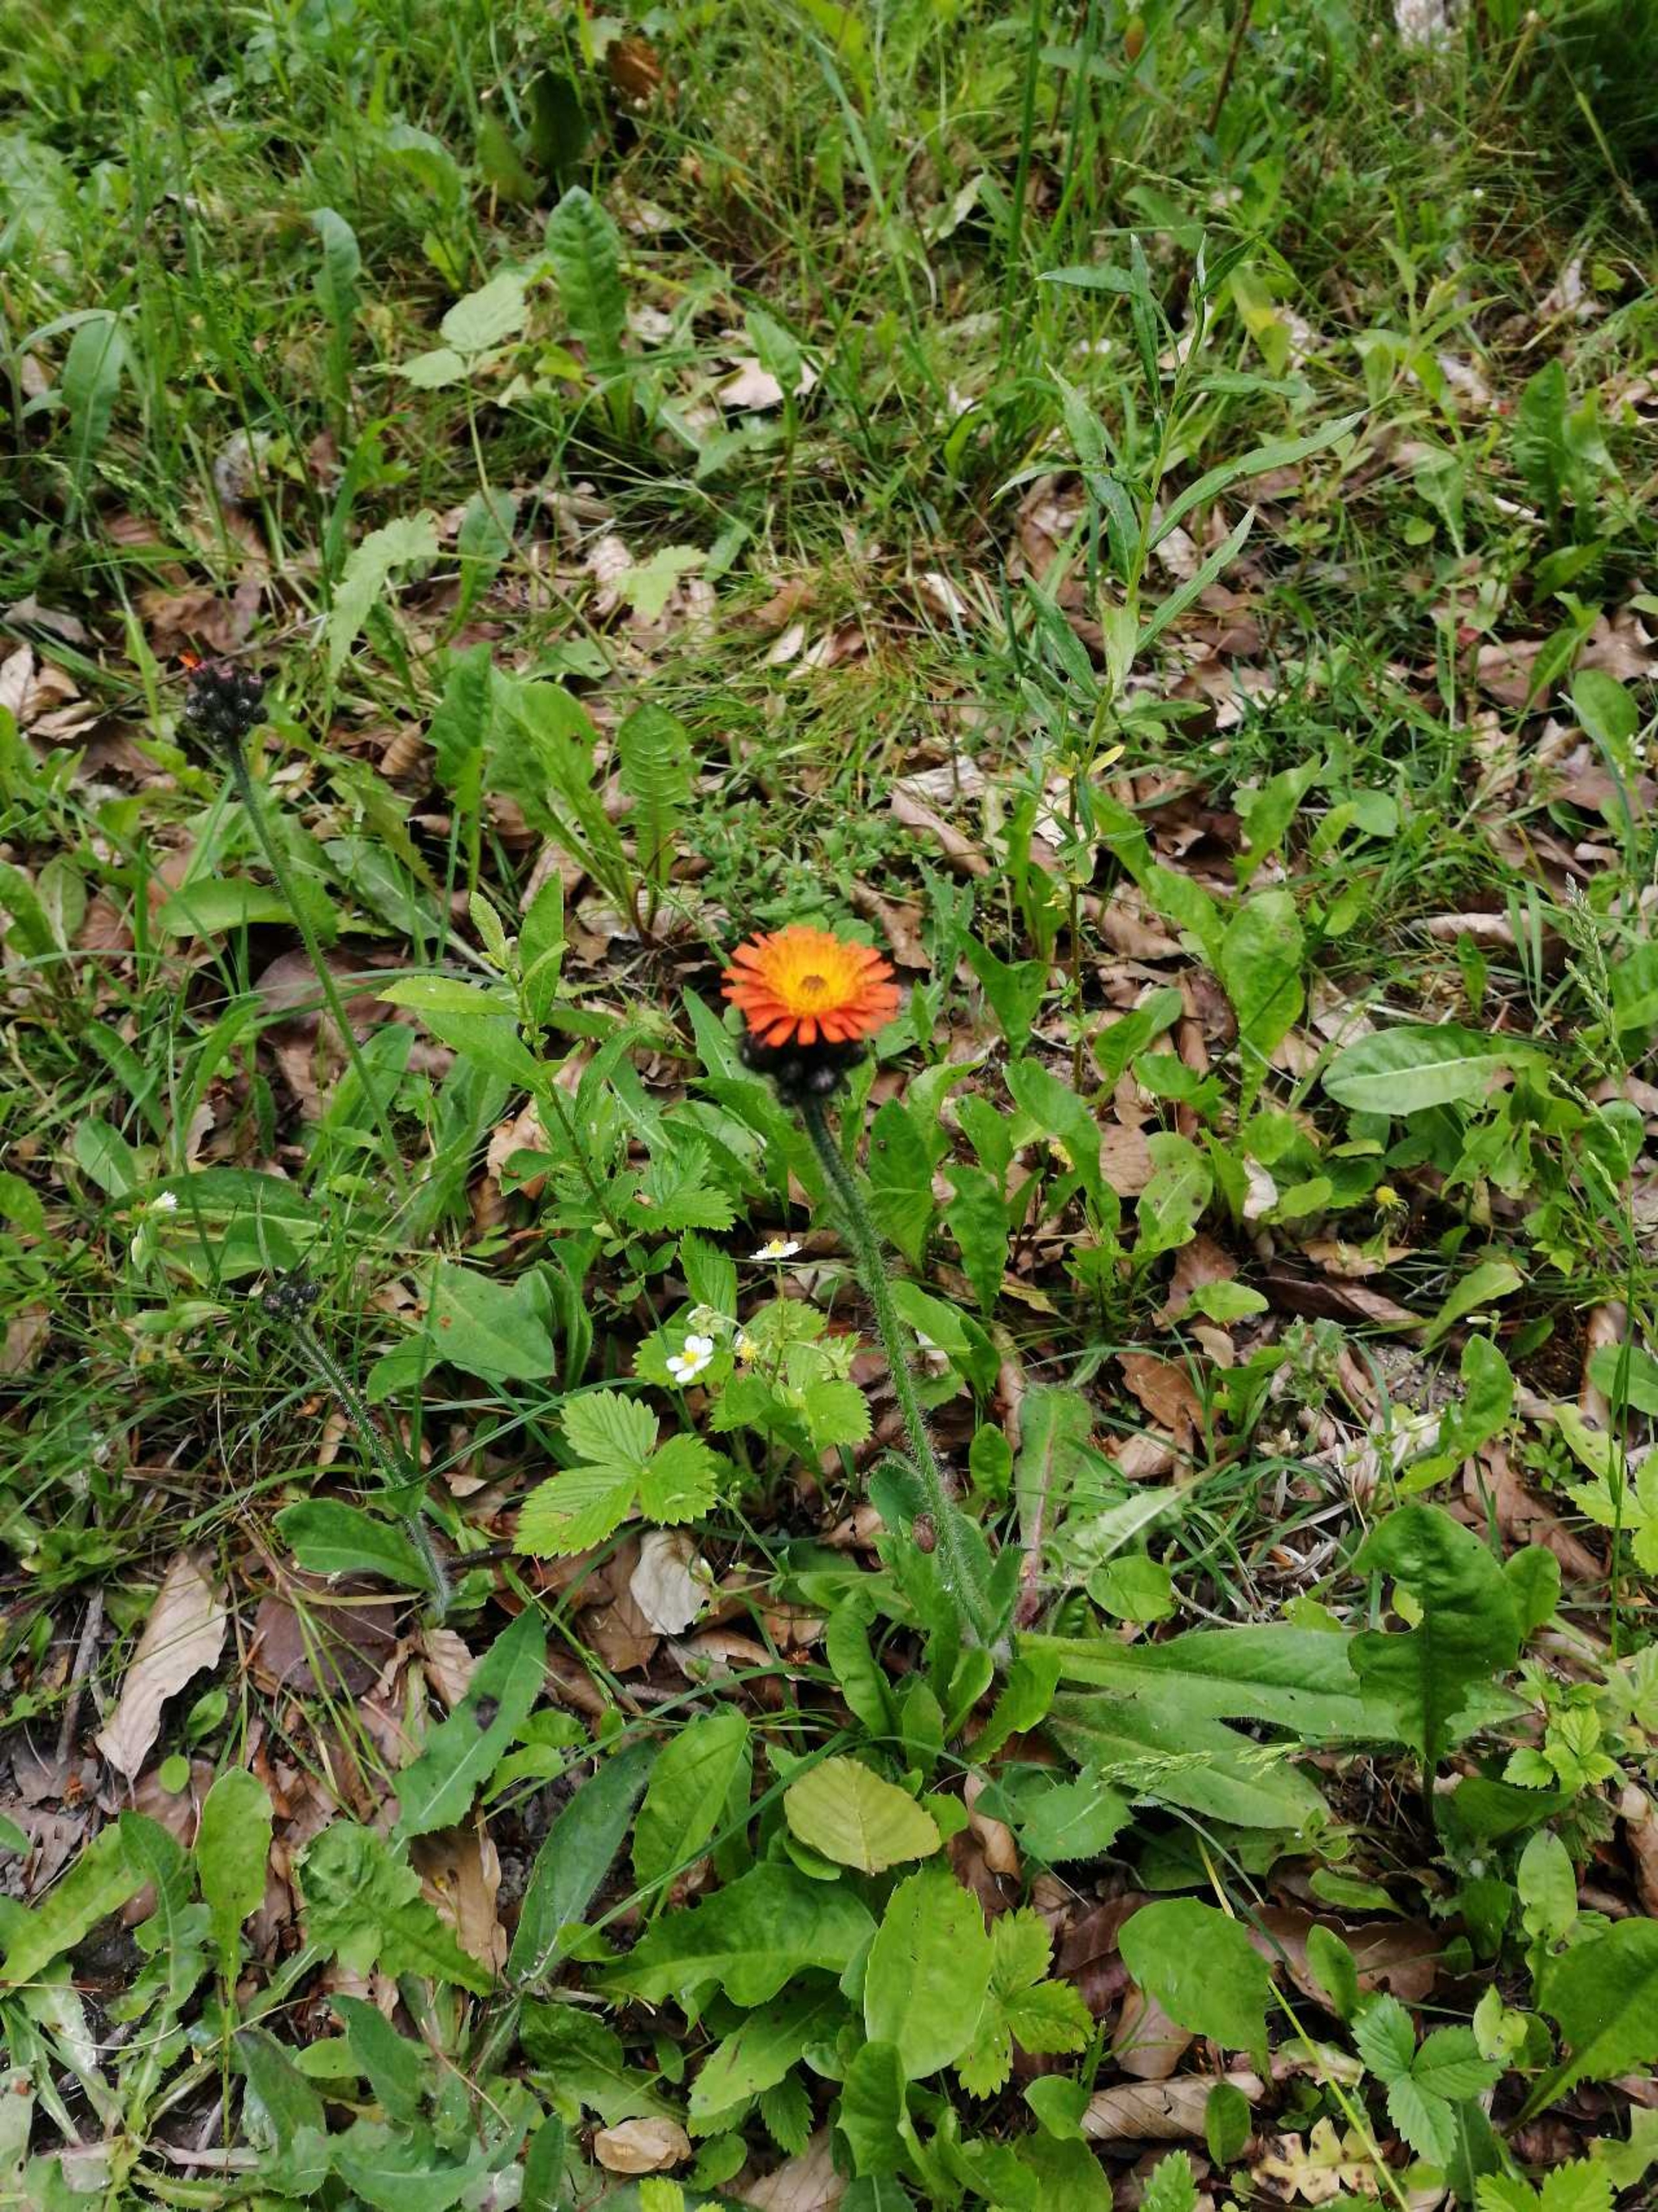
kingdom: Plantae
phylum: Tracheophyta
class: Magnoliopsida
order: Asterales
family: Asteraceae
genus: Pilosella
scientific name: Pilosella aurantiaca
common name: Pomerans-høgeurt
